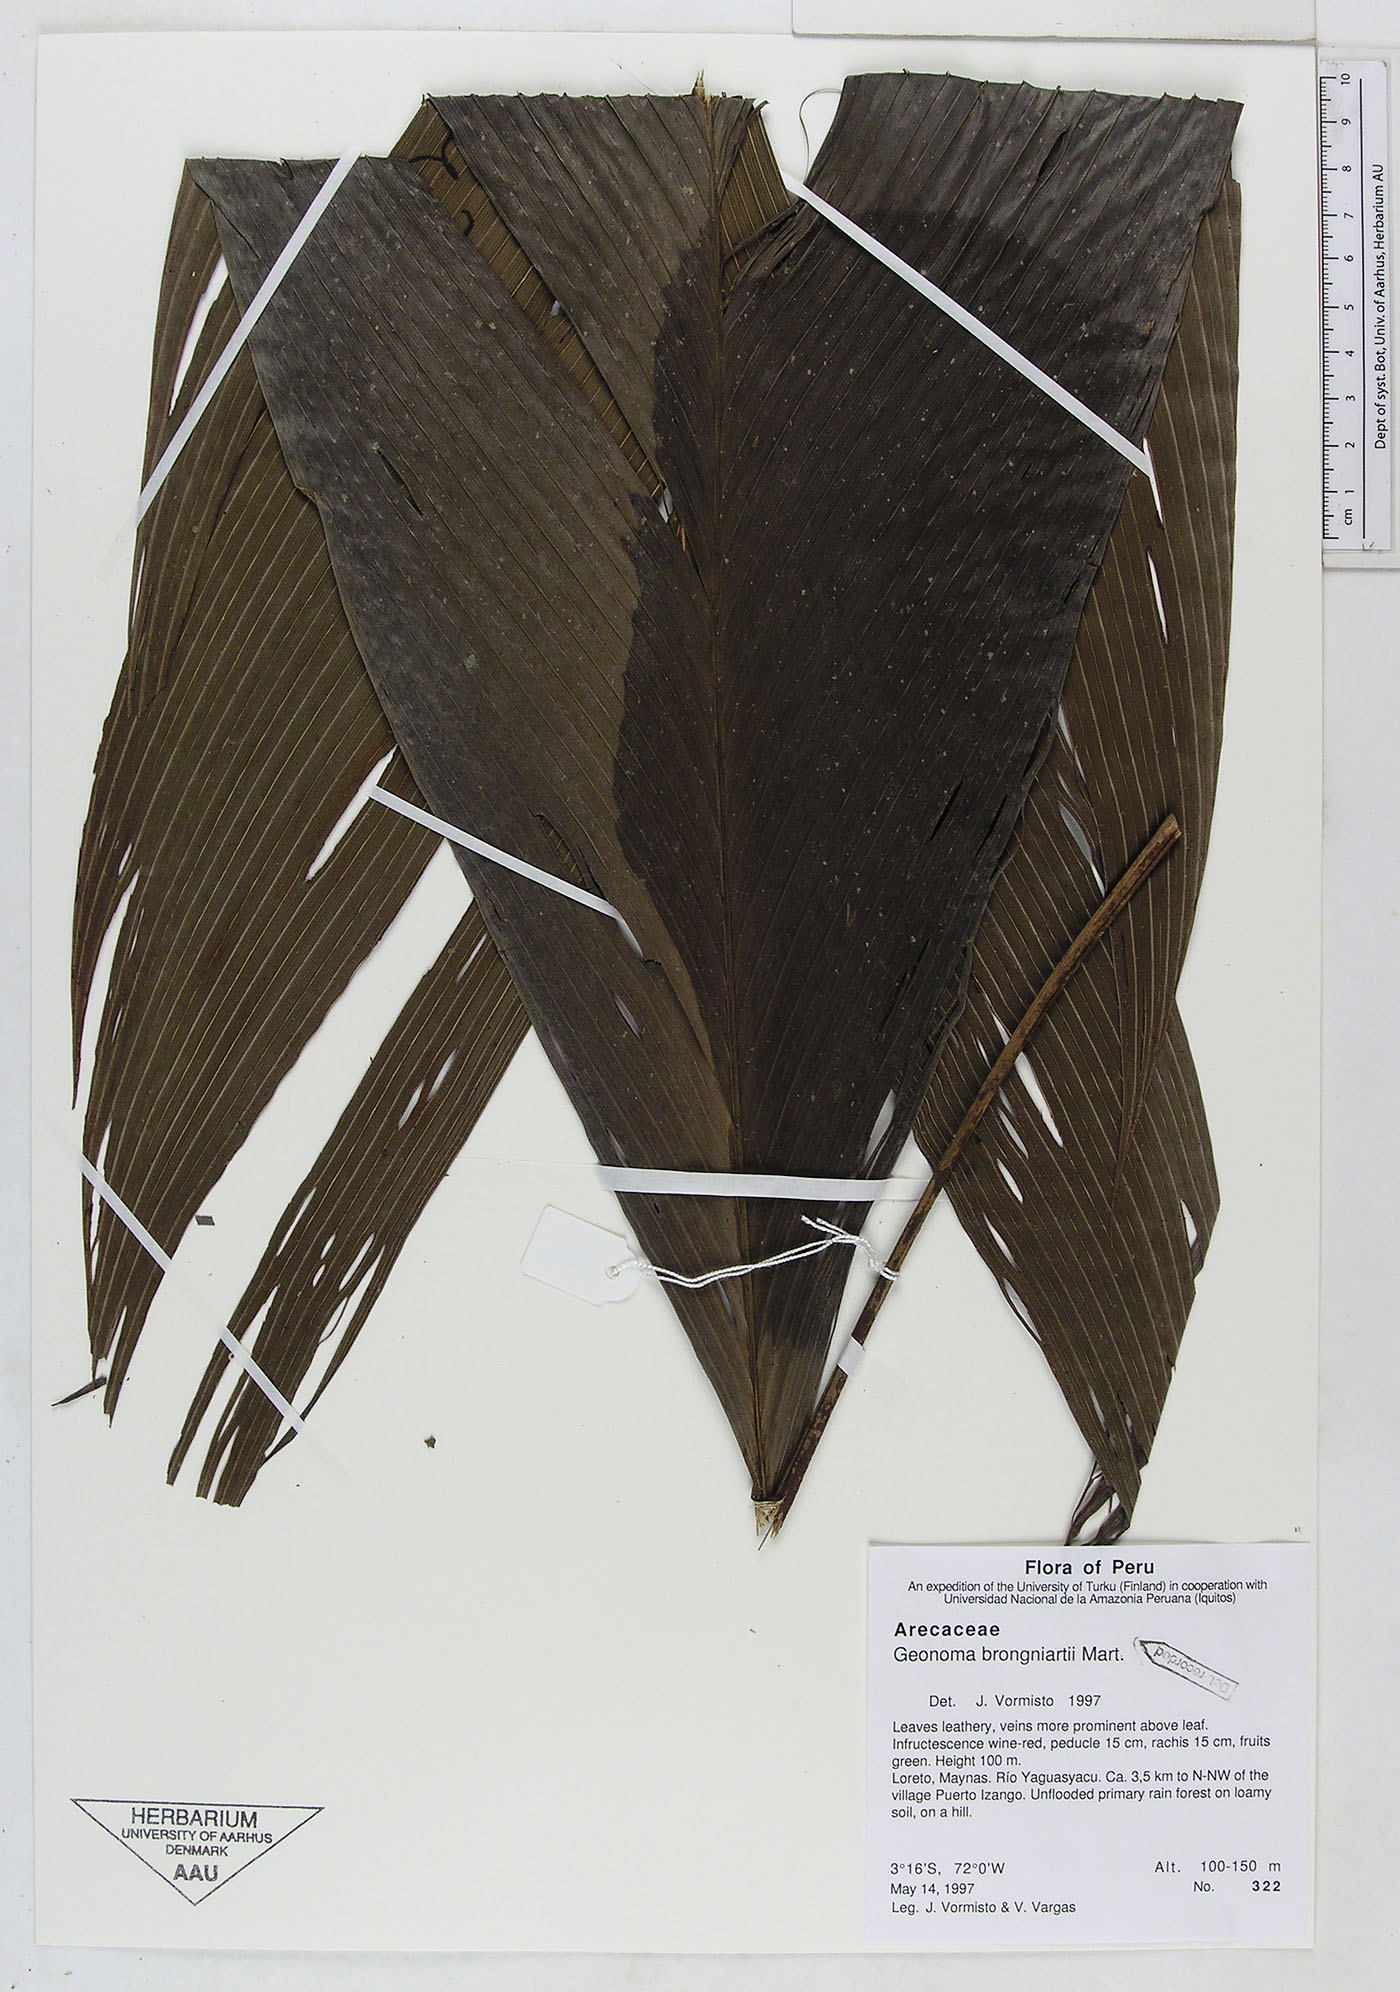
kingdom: Plantae
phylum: Tracheophyta
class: Liliopsida
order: Arecales
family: Arecaceae
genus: Geonoma
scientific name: Geonoma brongniartii
